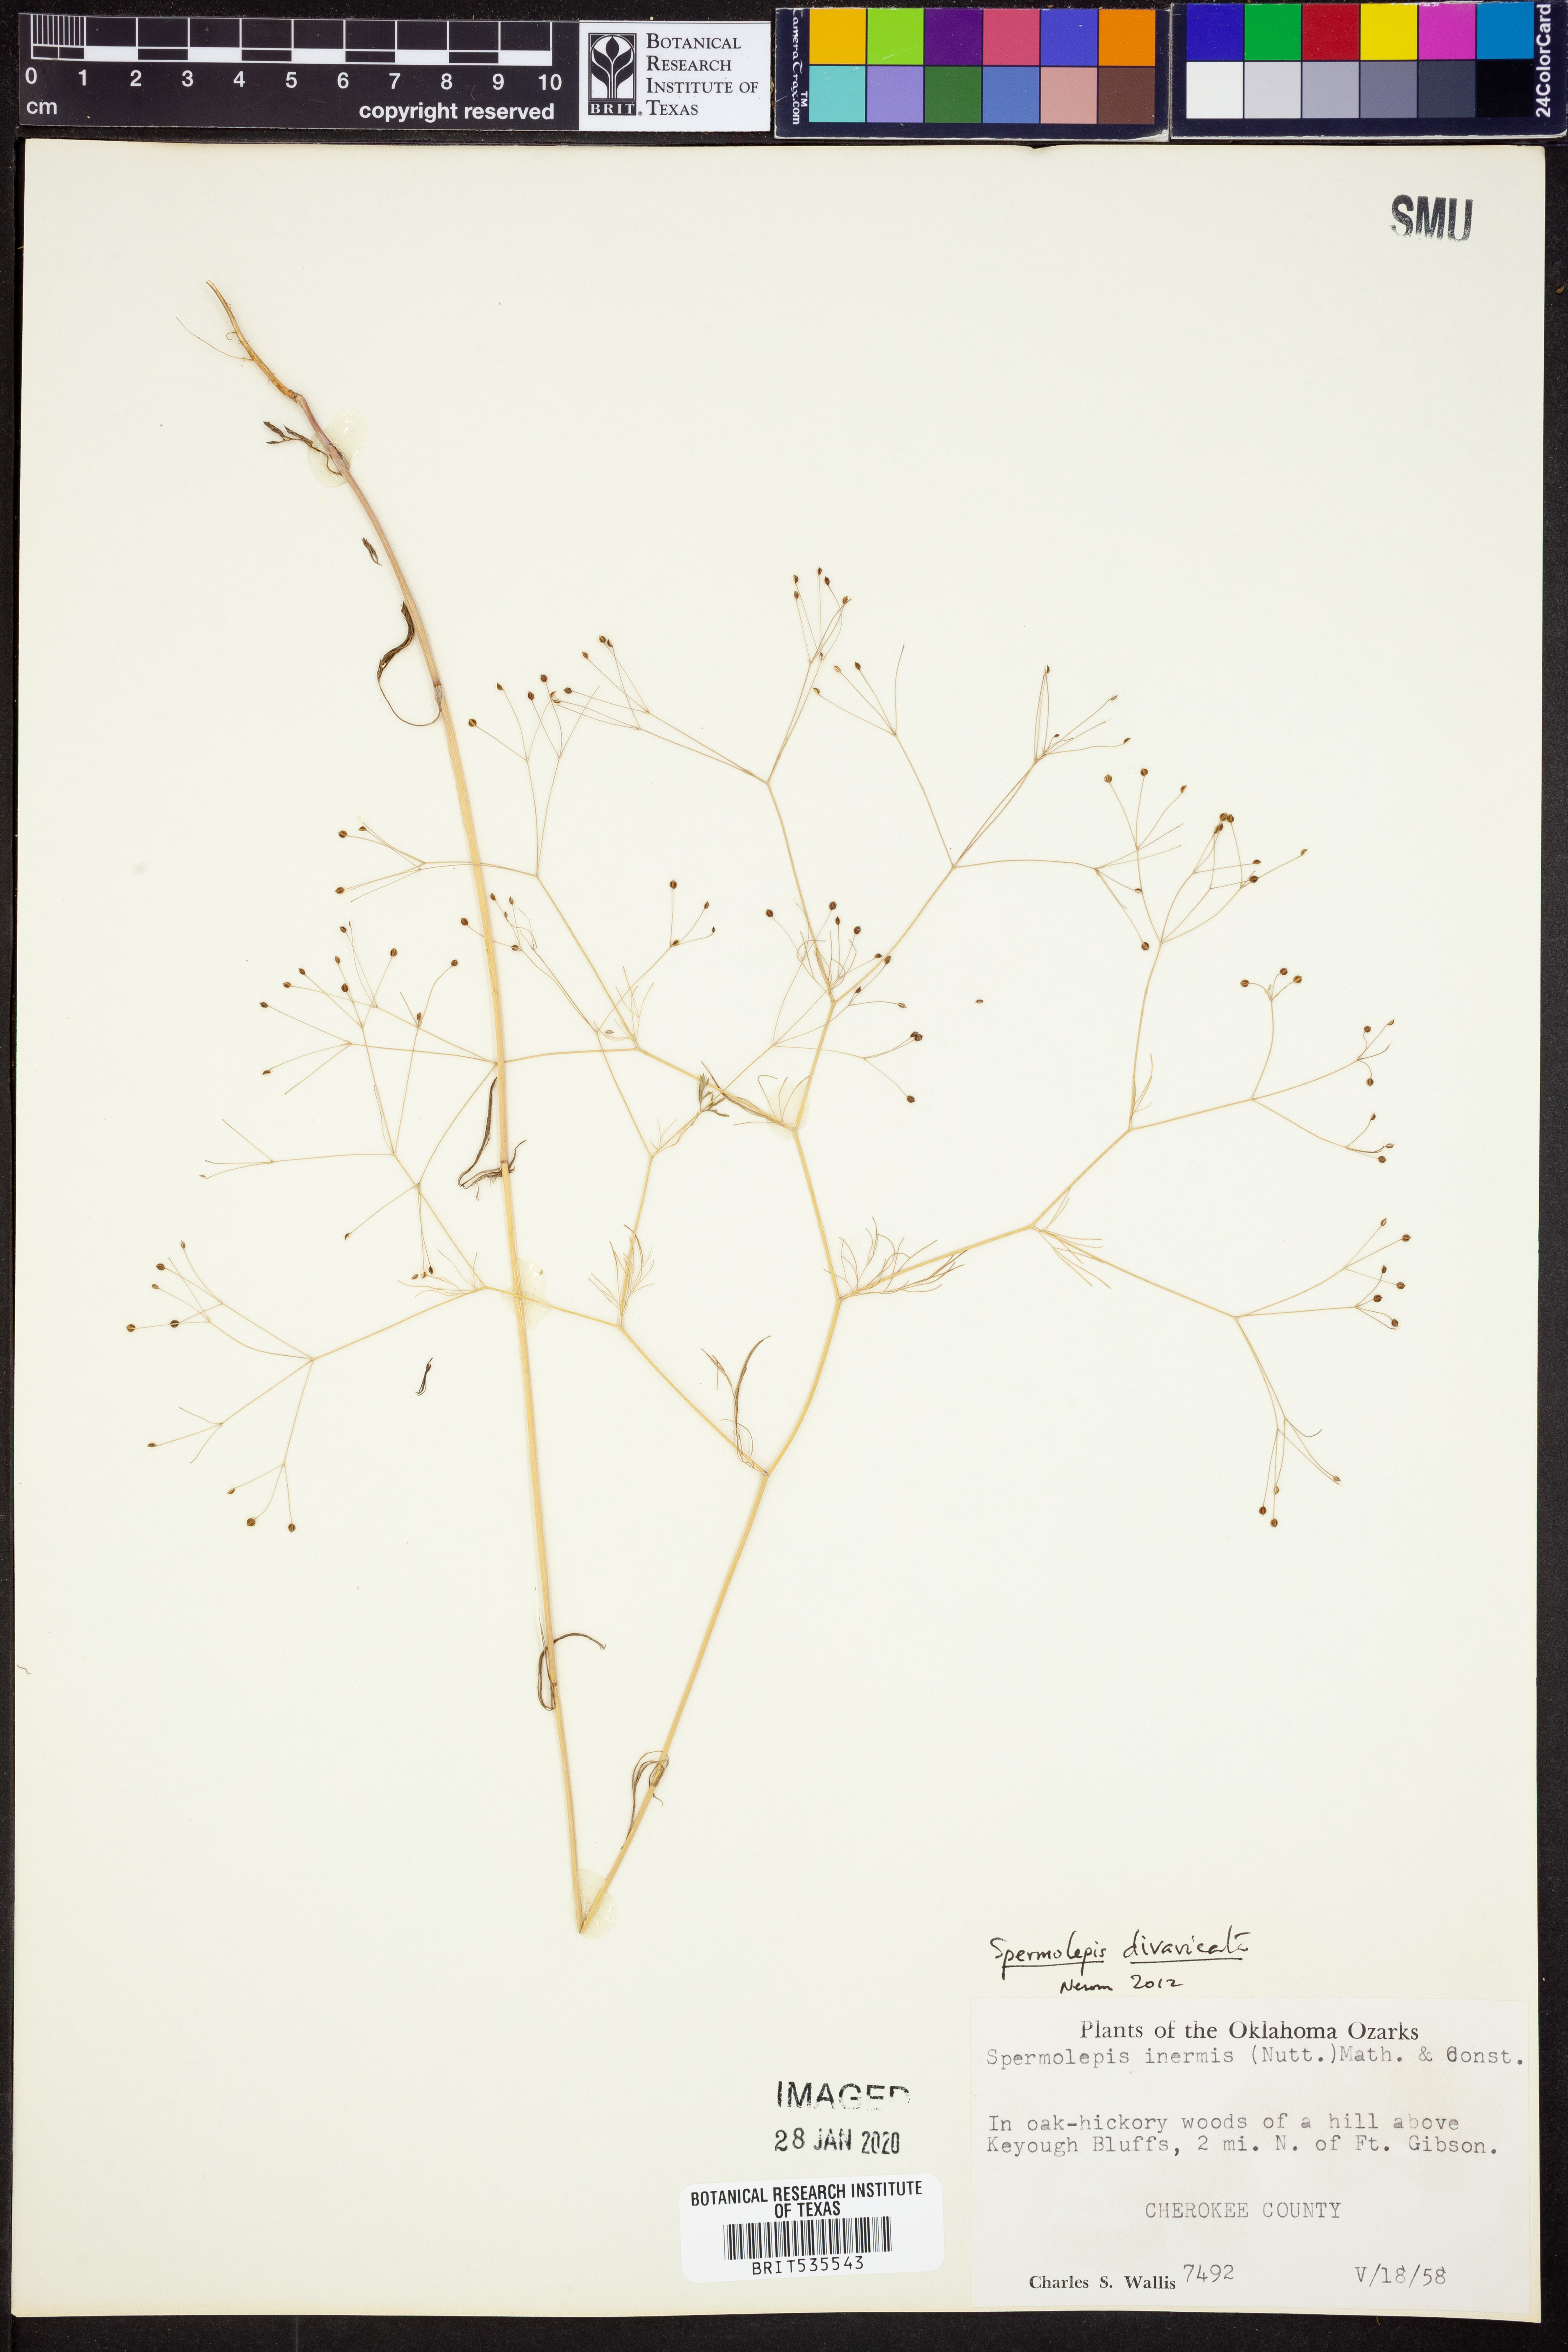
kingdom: Plantae
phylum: Tracheophyta
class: Magnoliopsida
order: Apiales
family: Apiaceae
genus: Spermolepis
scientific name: Spermolepis divaricata
